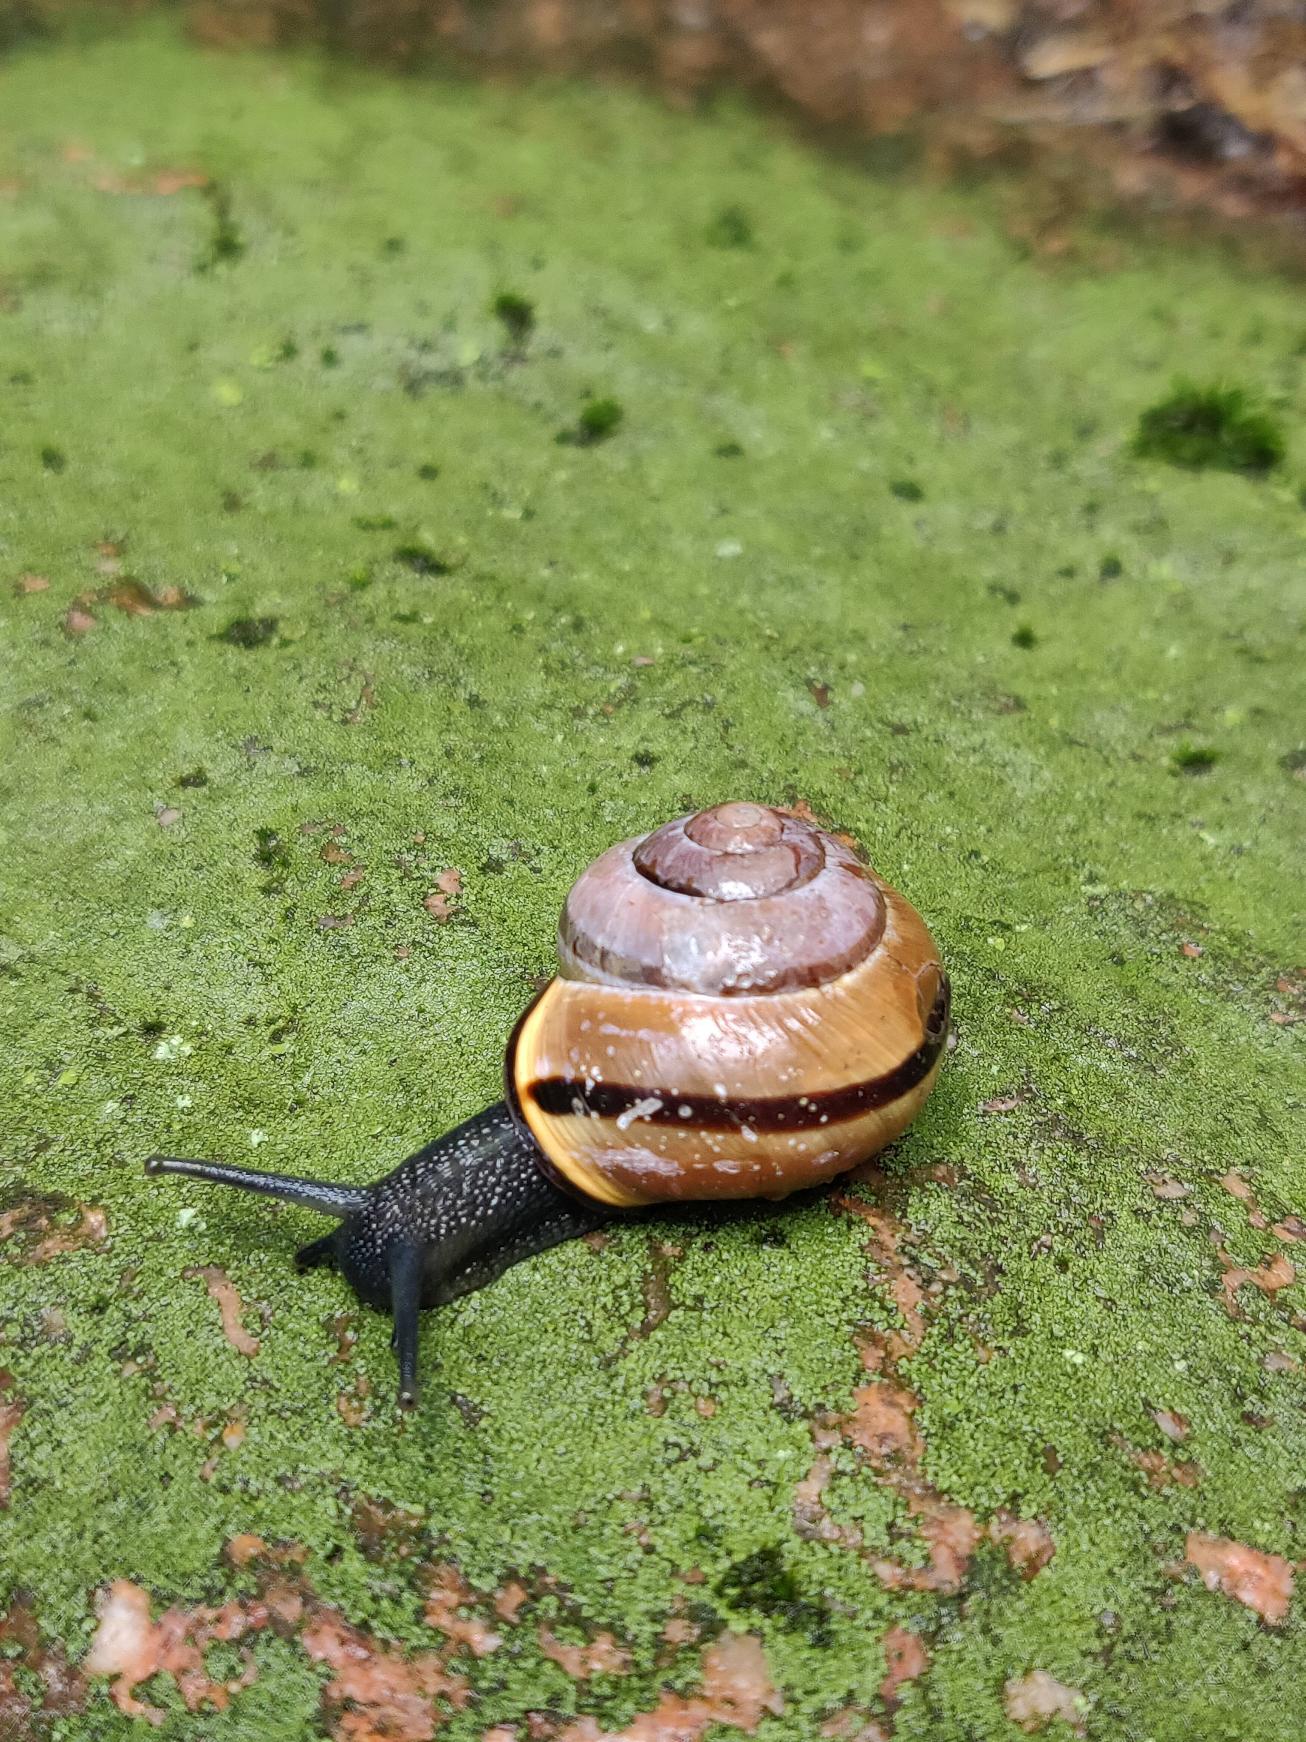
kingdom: Animalia
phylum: Mollusca
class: Gastropoda
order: Stylommatophora
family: Helicidae
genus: Cepaea
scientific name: Cepaea nemoralis
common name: Lundsnegl
